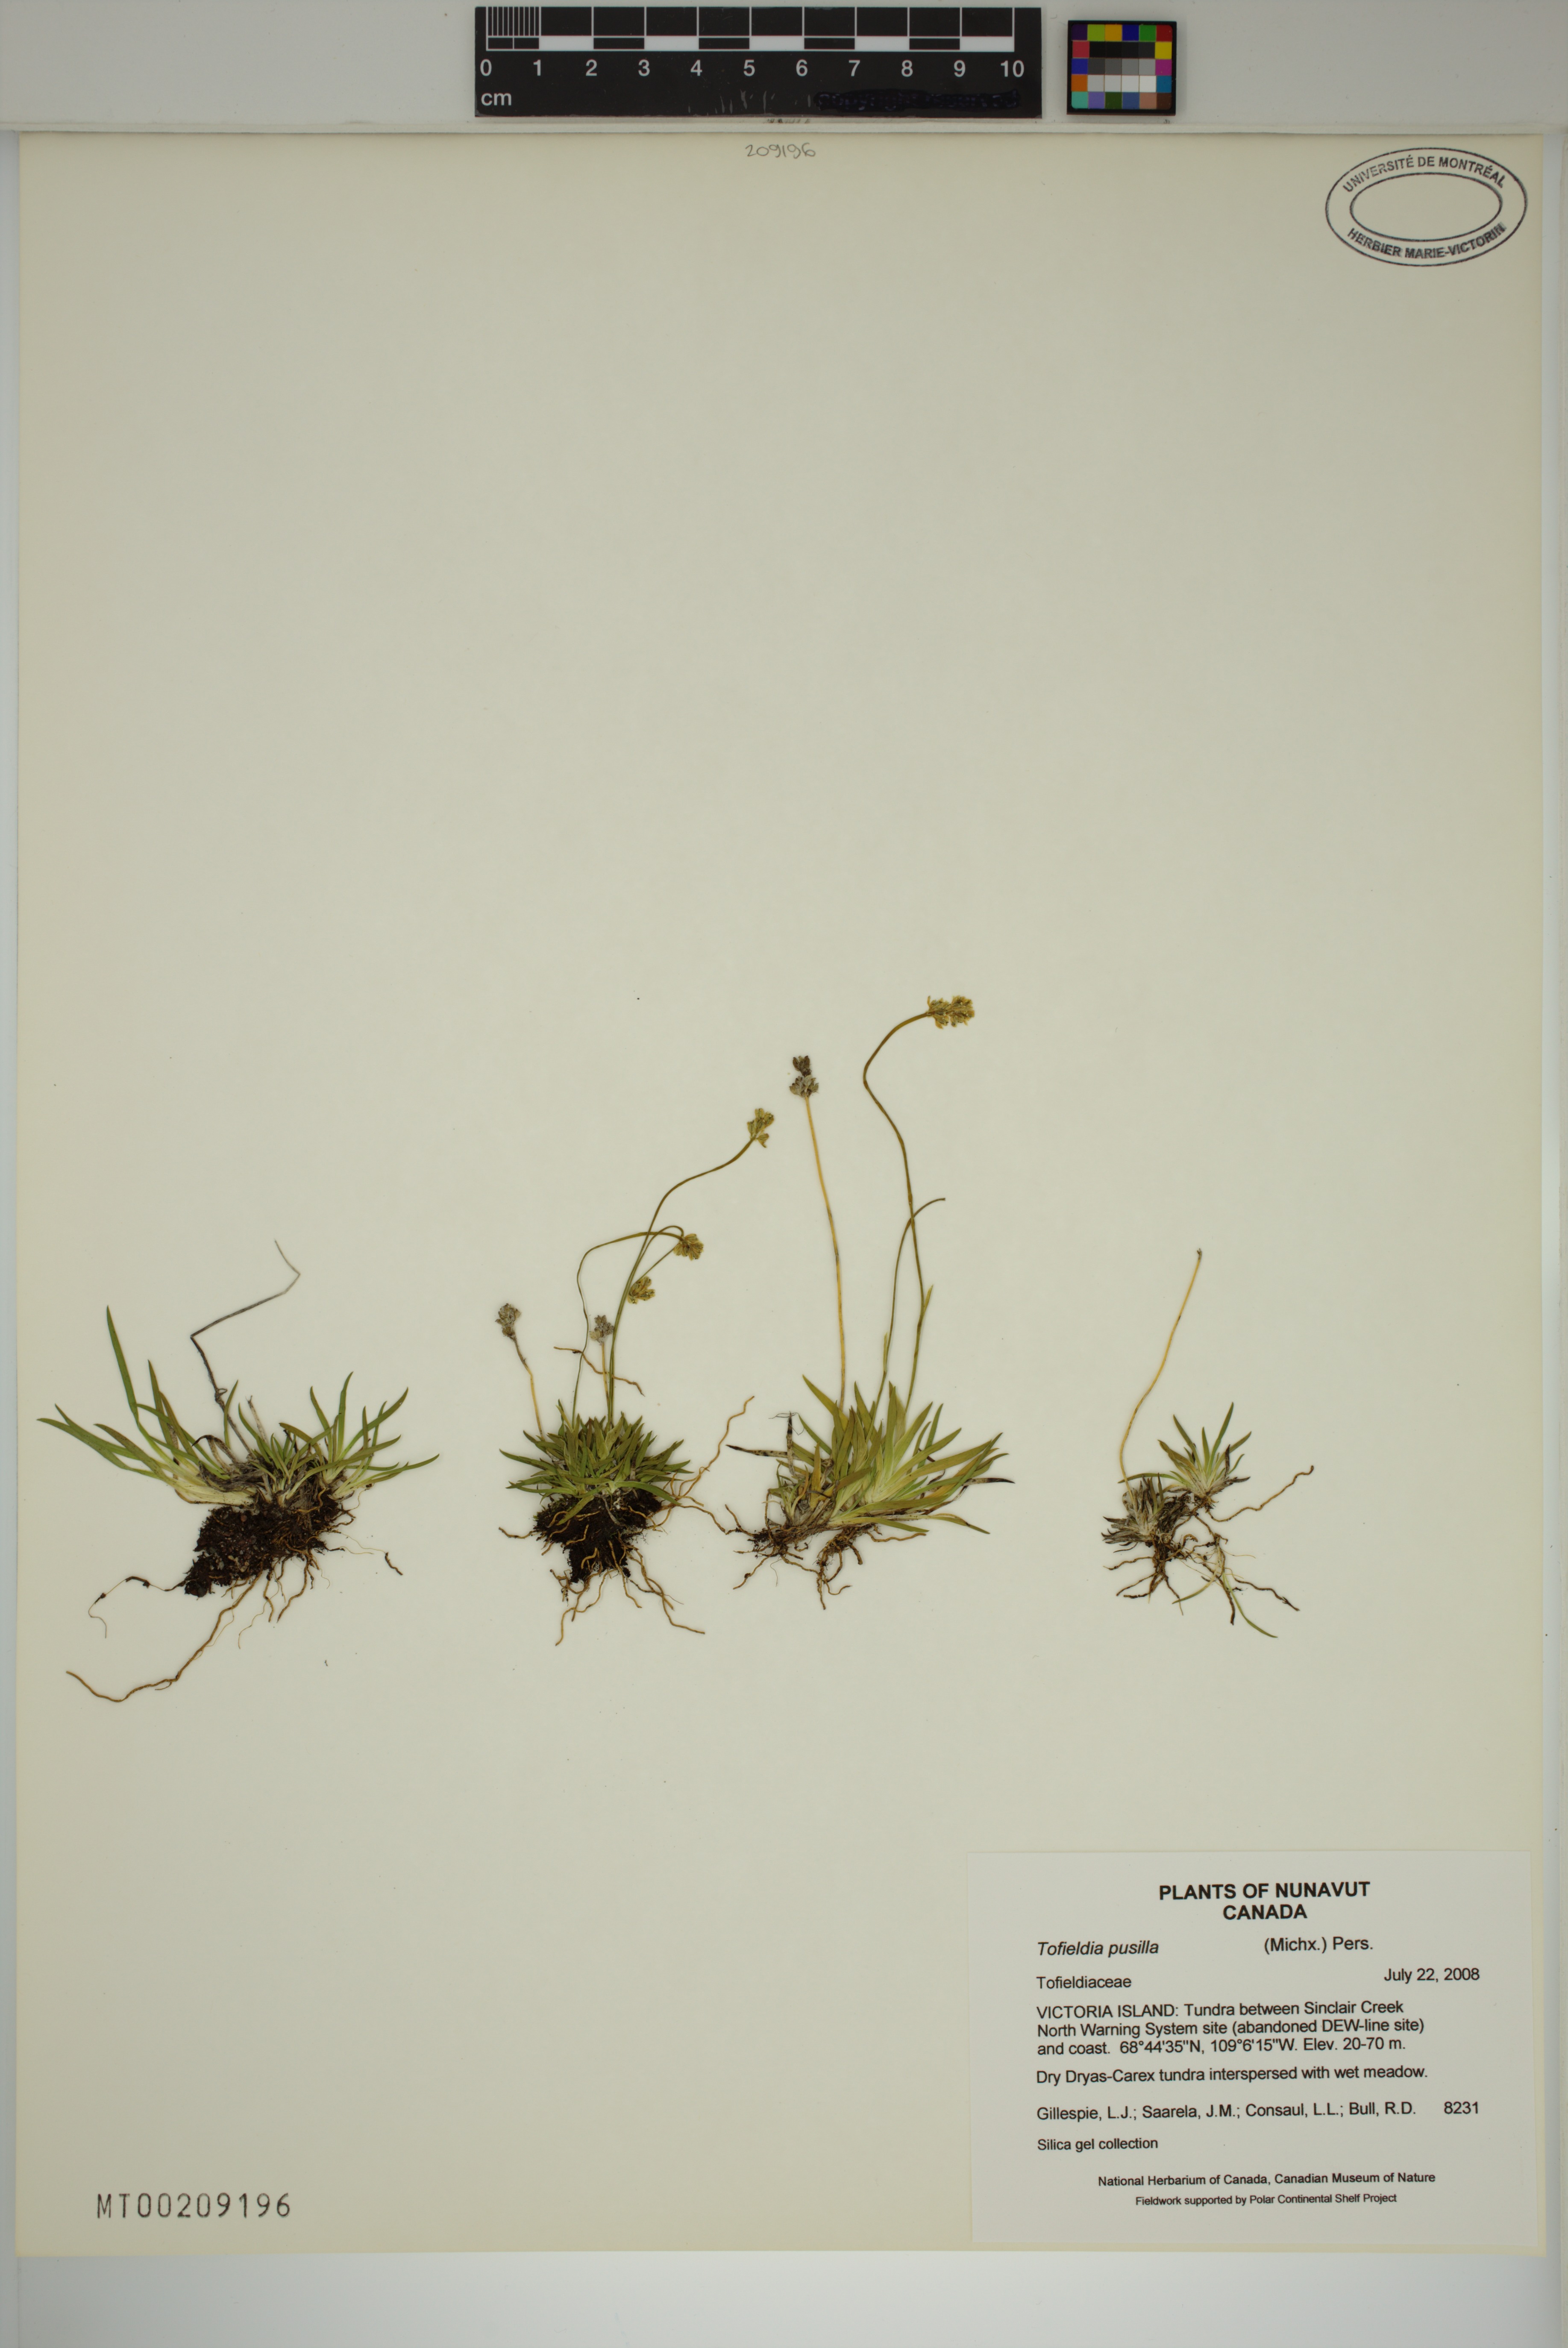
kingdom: Plantae
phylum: Tracheophyta
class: Liliopsida
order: Alismatales
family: Tofieldiaceae
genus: Tofieldia
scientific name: Tofieldia pusilla
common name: Scottish false asphodel
